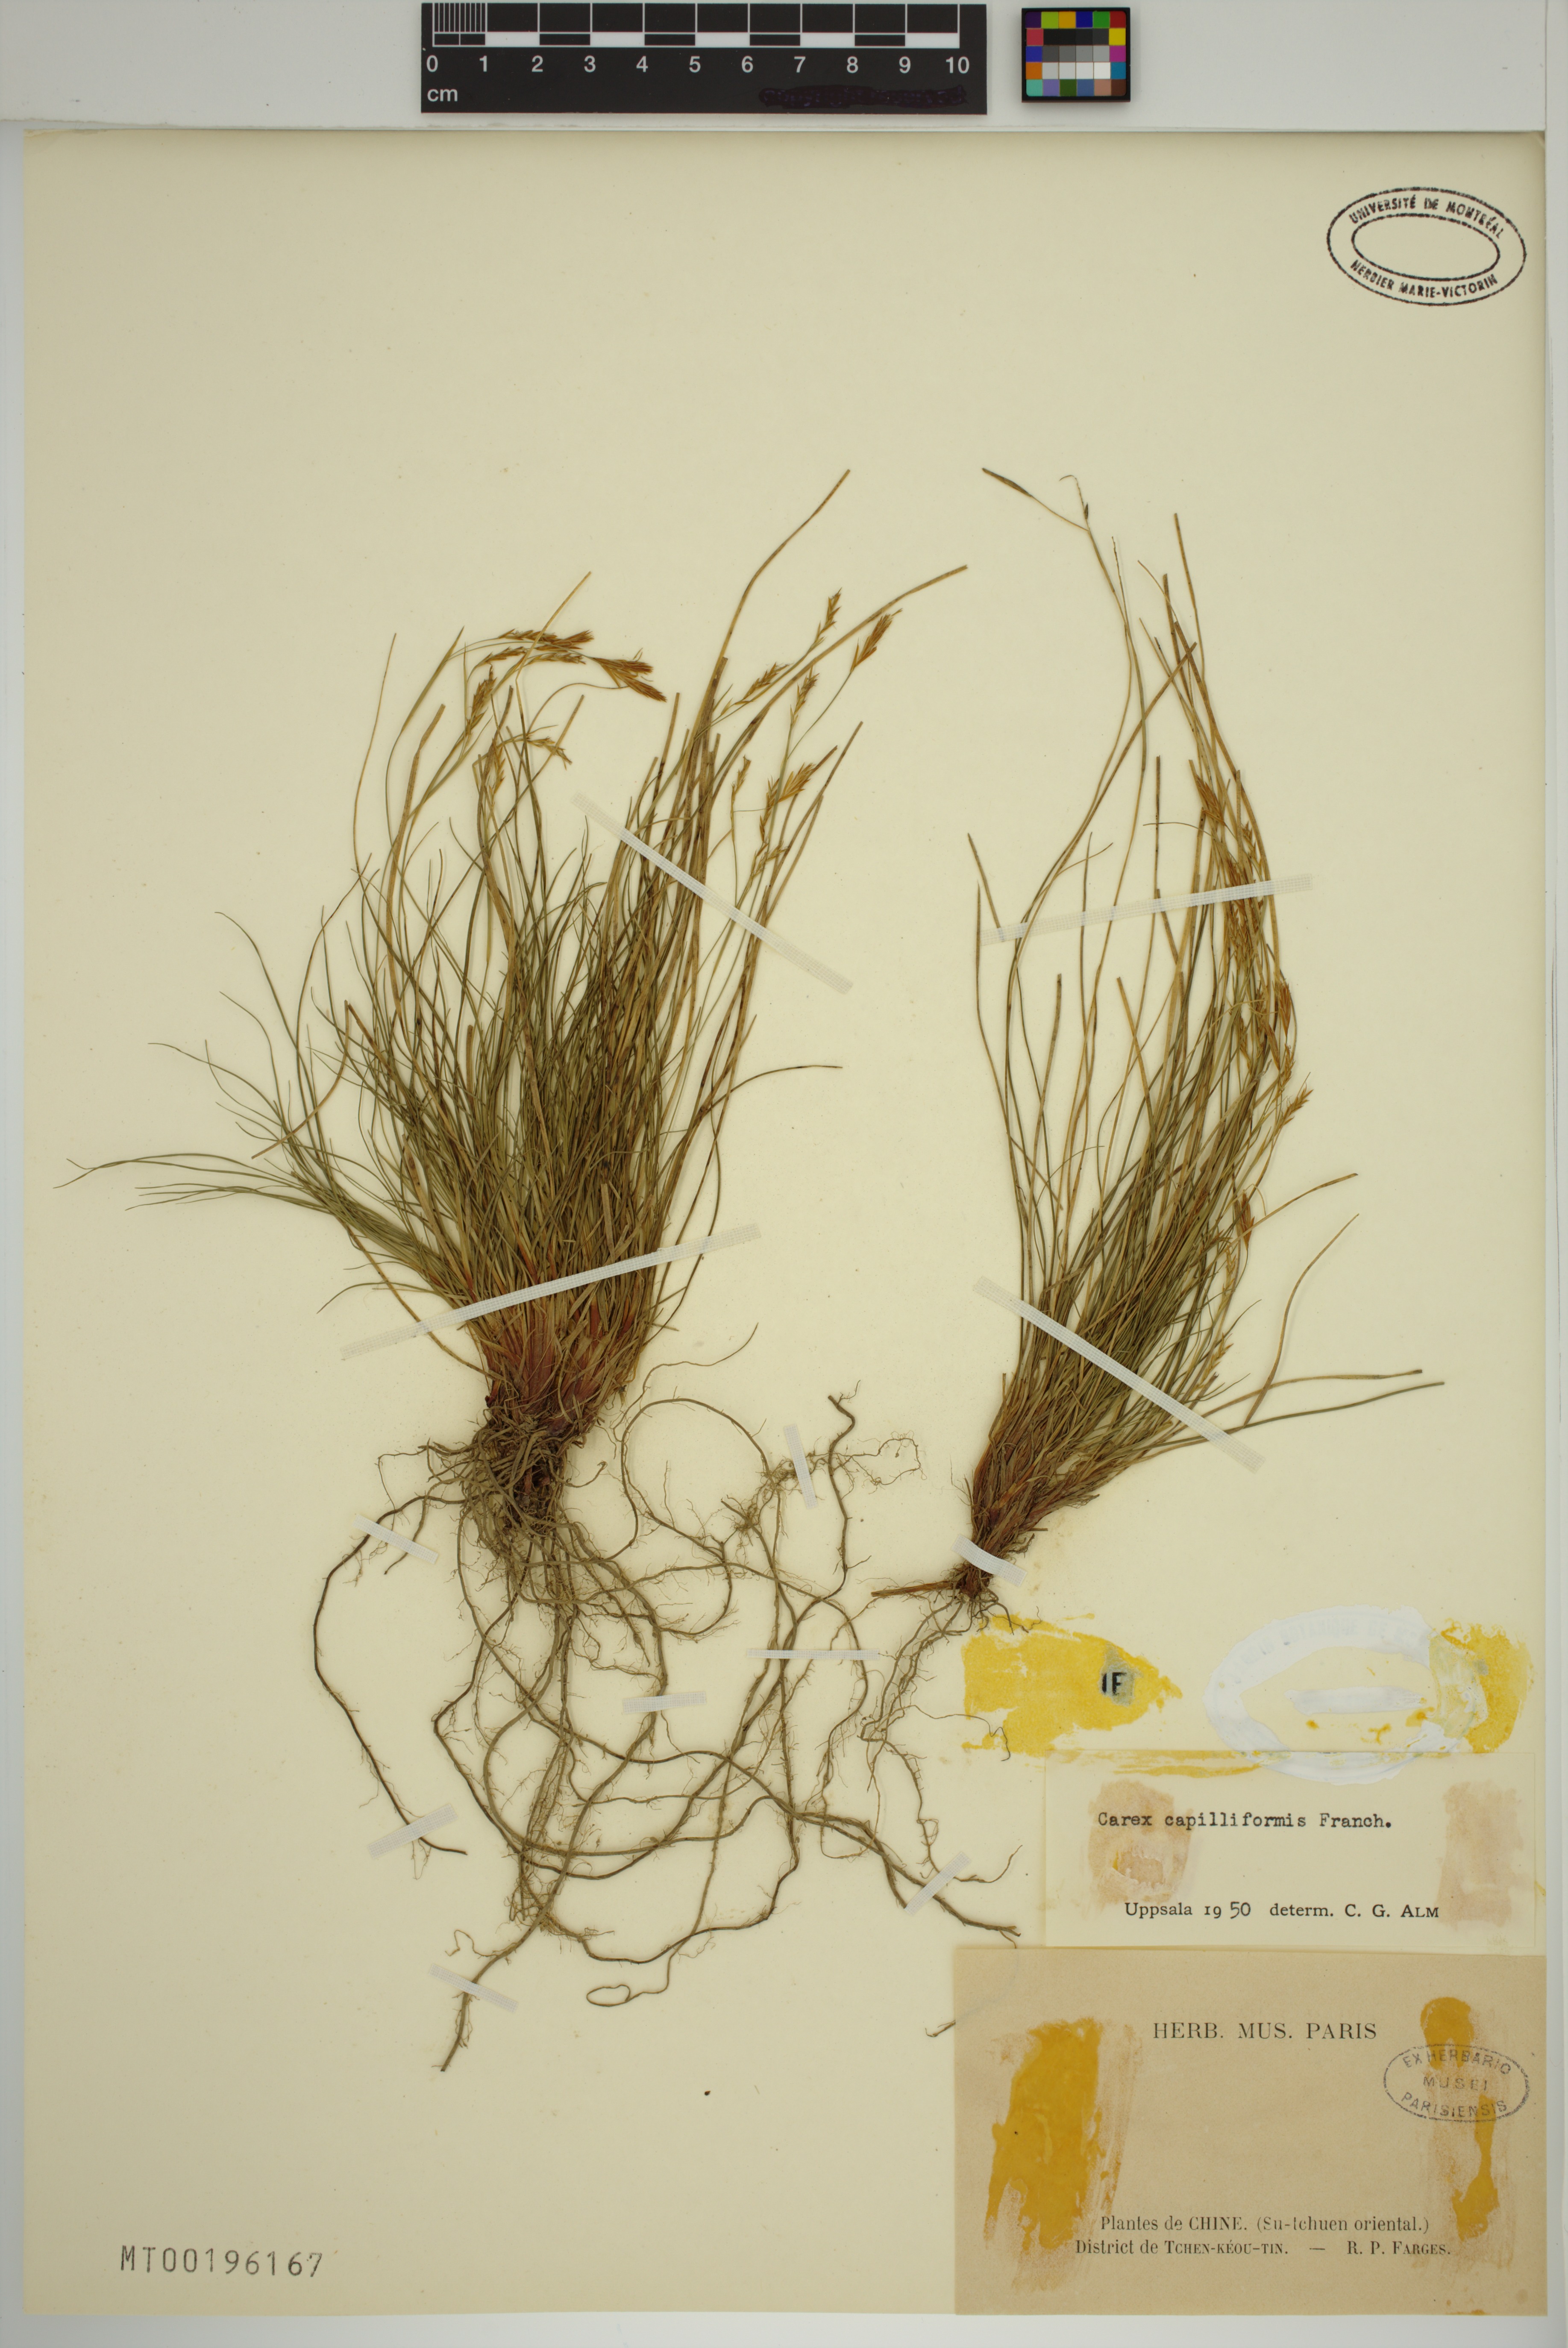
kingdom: Plantae
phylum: Tracheophyta
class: Liliopsida
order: Poales
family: Cyperaceae
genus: Carex
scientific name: Carex capilliformis
